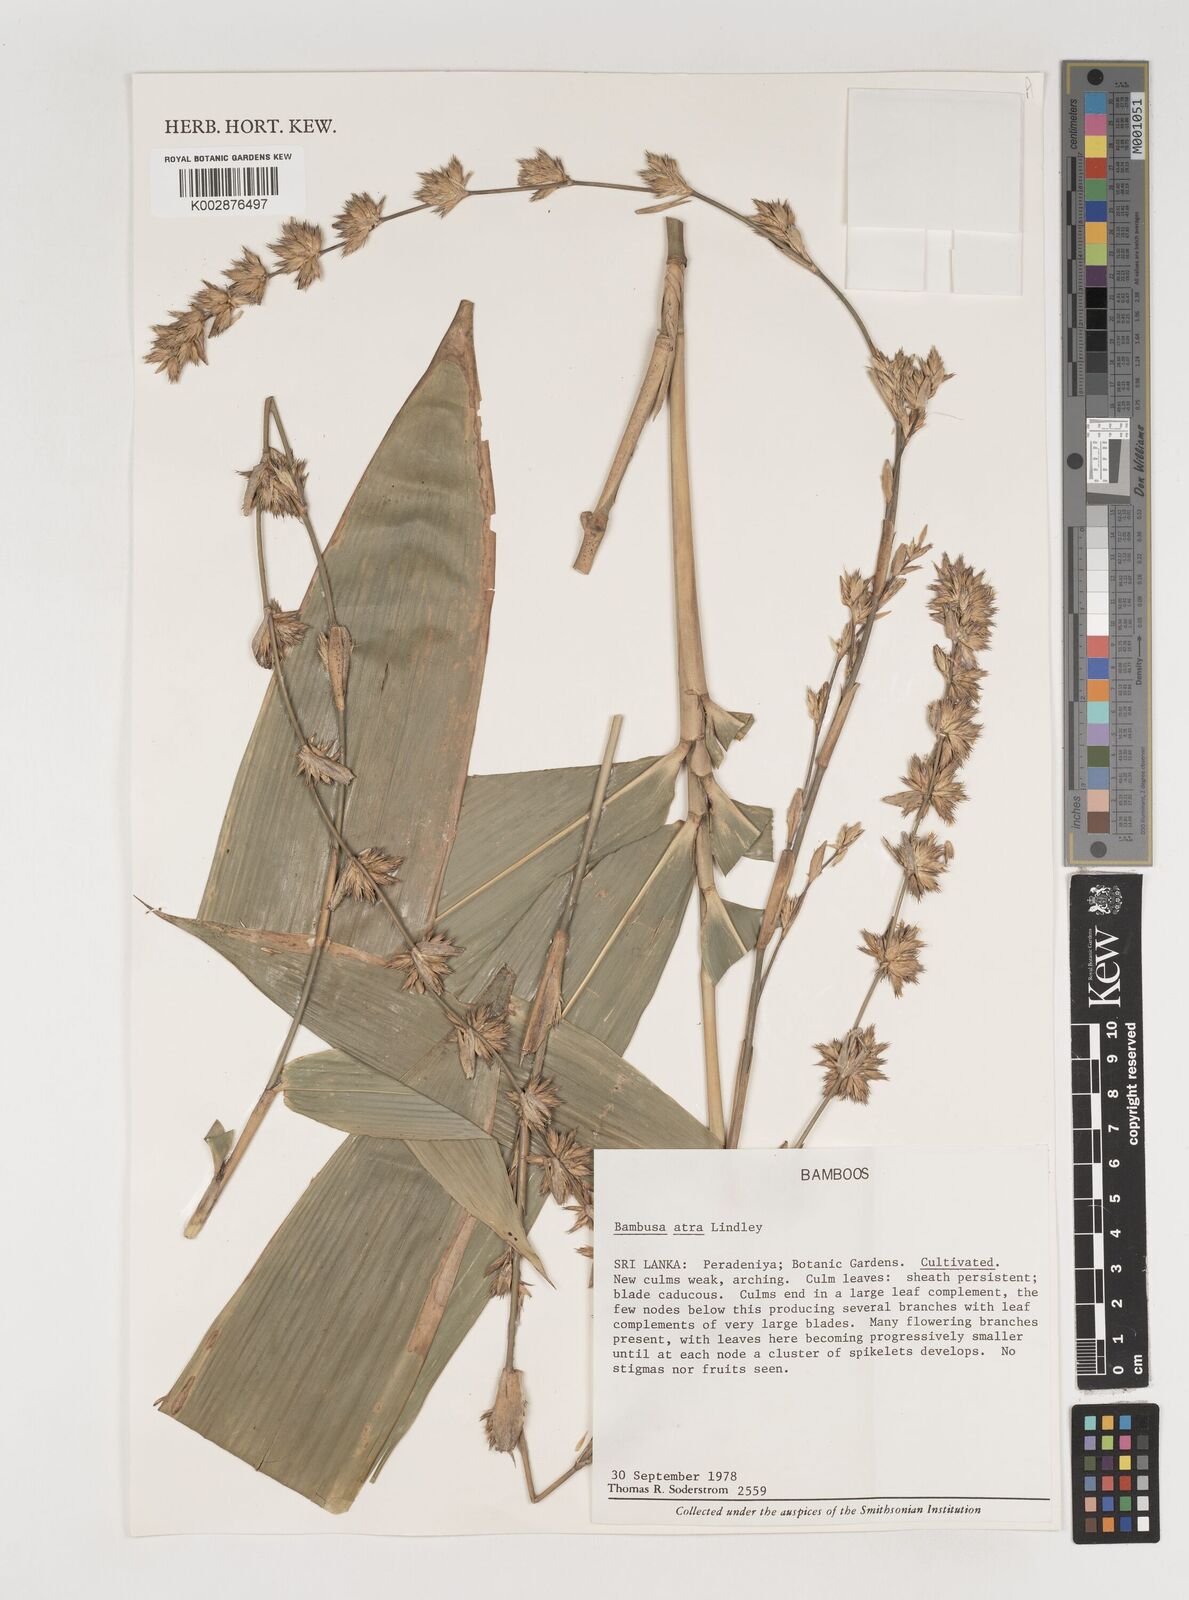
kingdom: Plantae
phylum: Tracheophyta
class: Liliopsida
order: Poales
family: Poaceae
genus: Bambusa
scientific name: Bambusa
